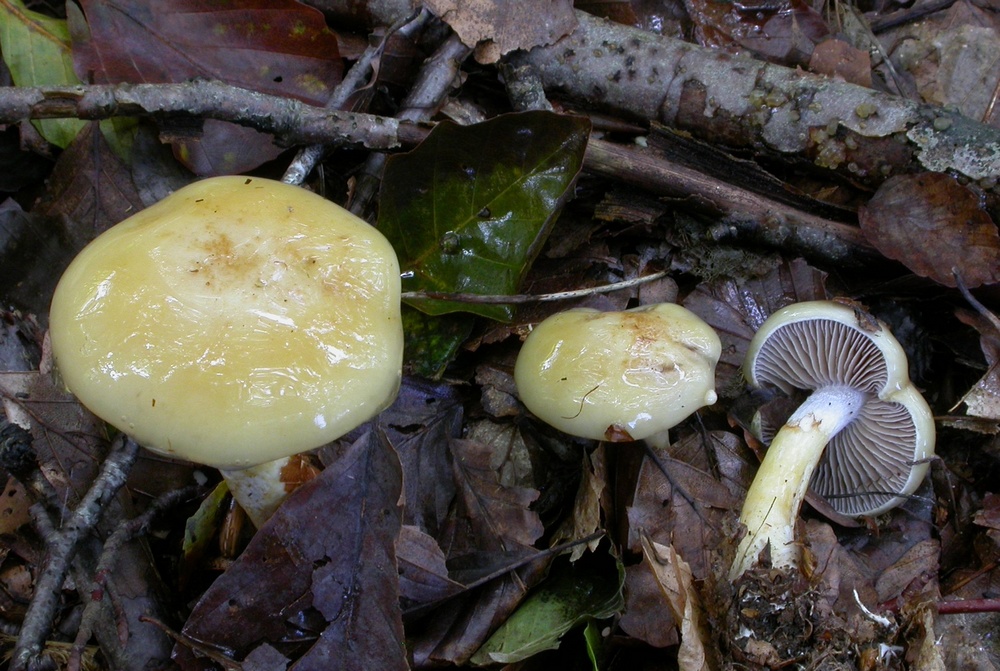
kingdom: Fungi
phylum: Basidiomycota
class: Agaricomycetes
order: Agaricales
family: Cortinariaceae
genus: Cortinarius
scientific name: Cortinarius delibutus
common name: gul slørhat
